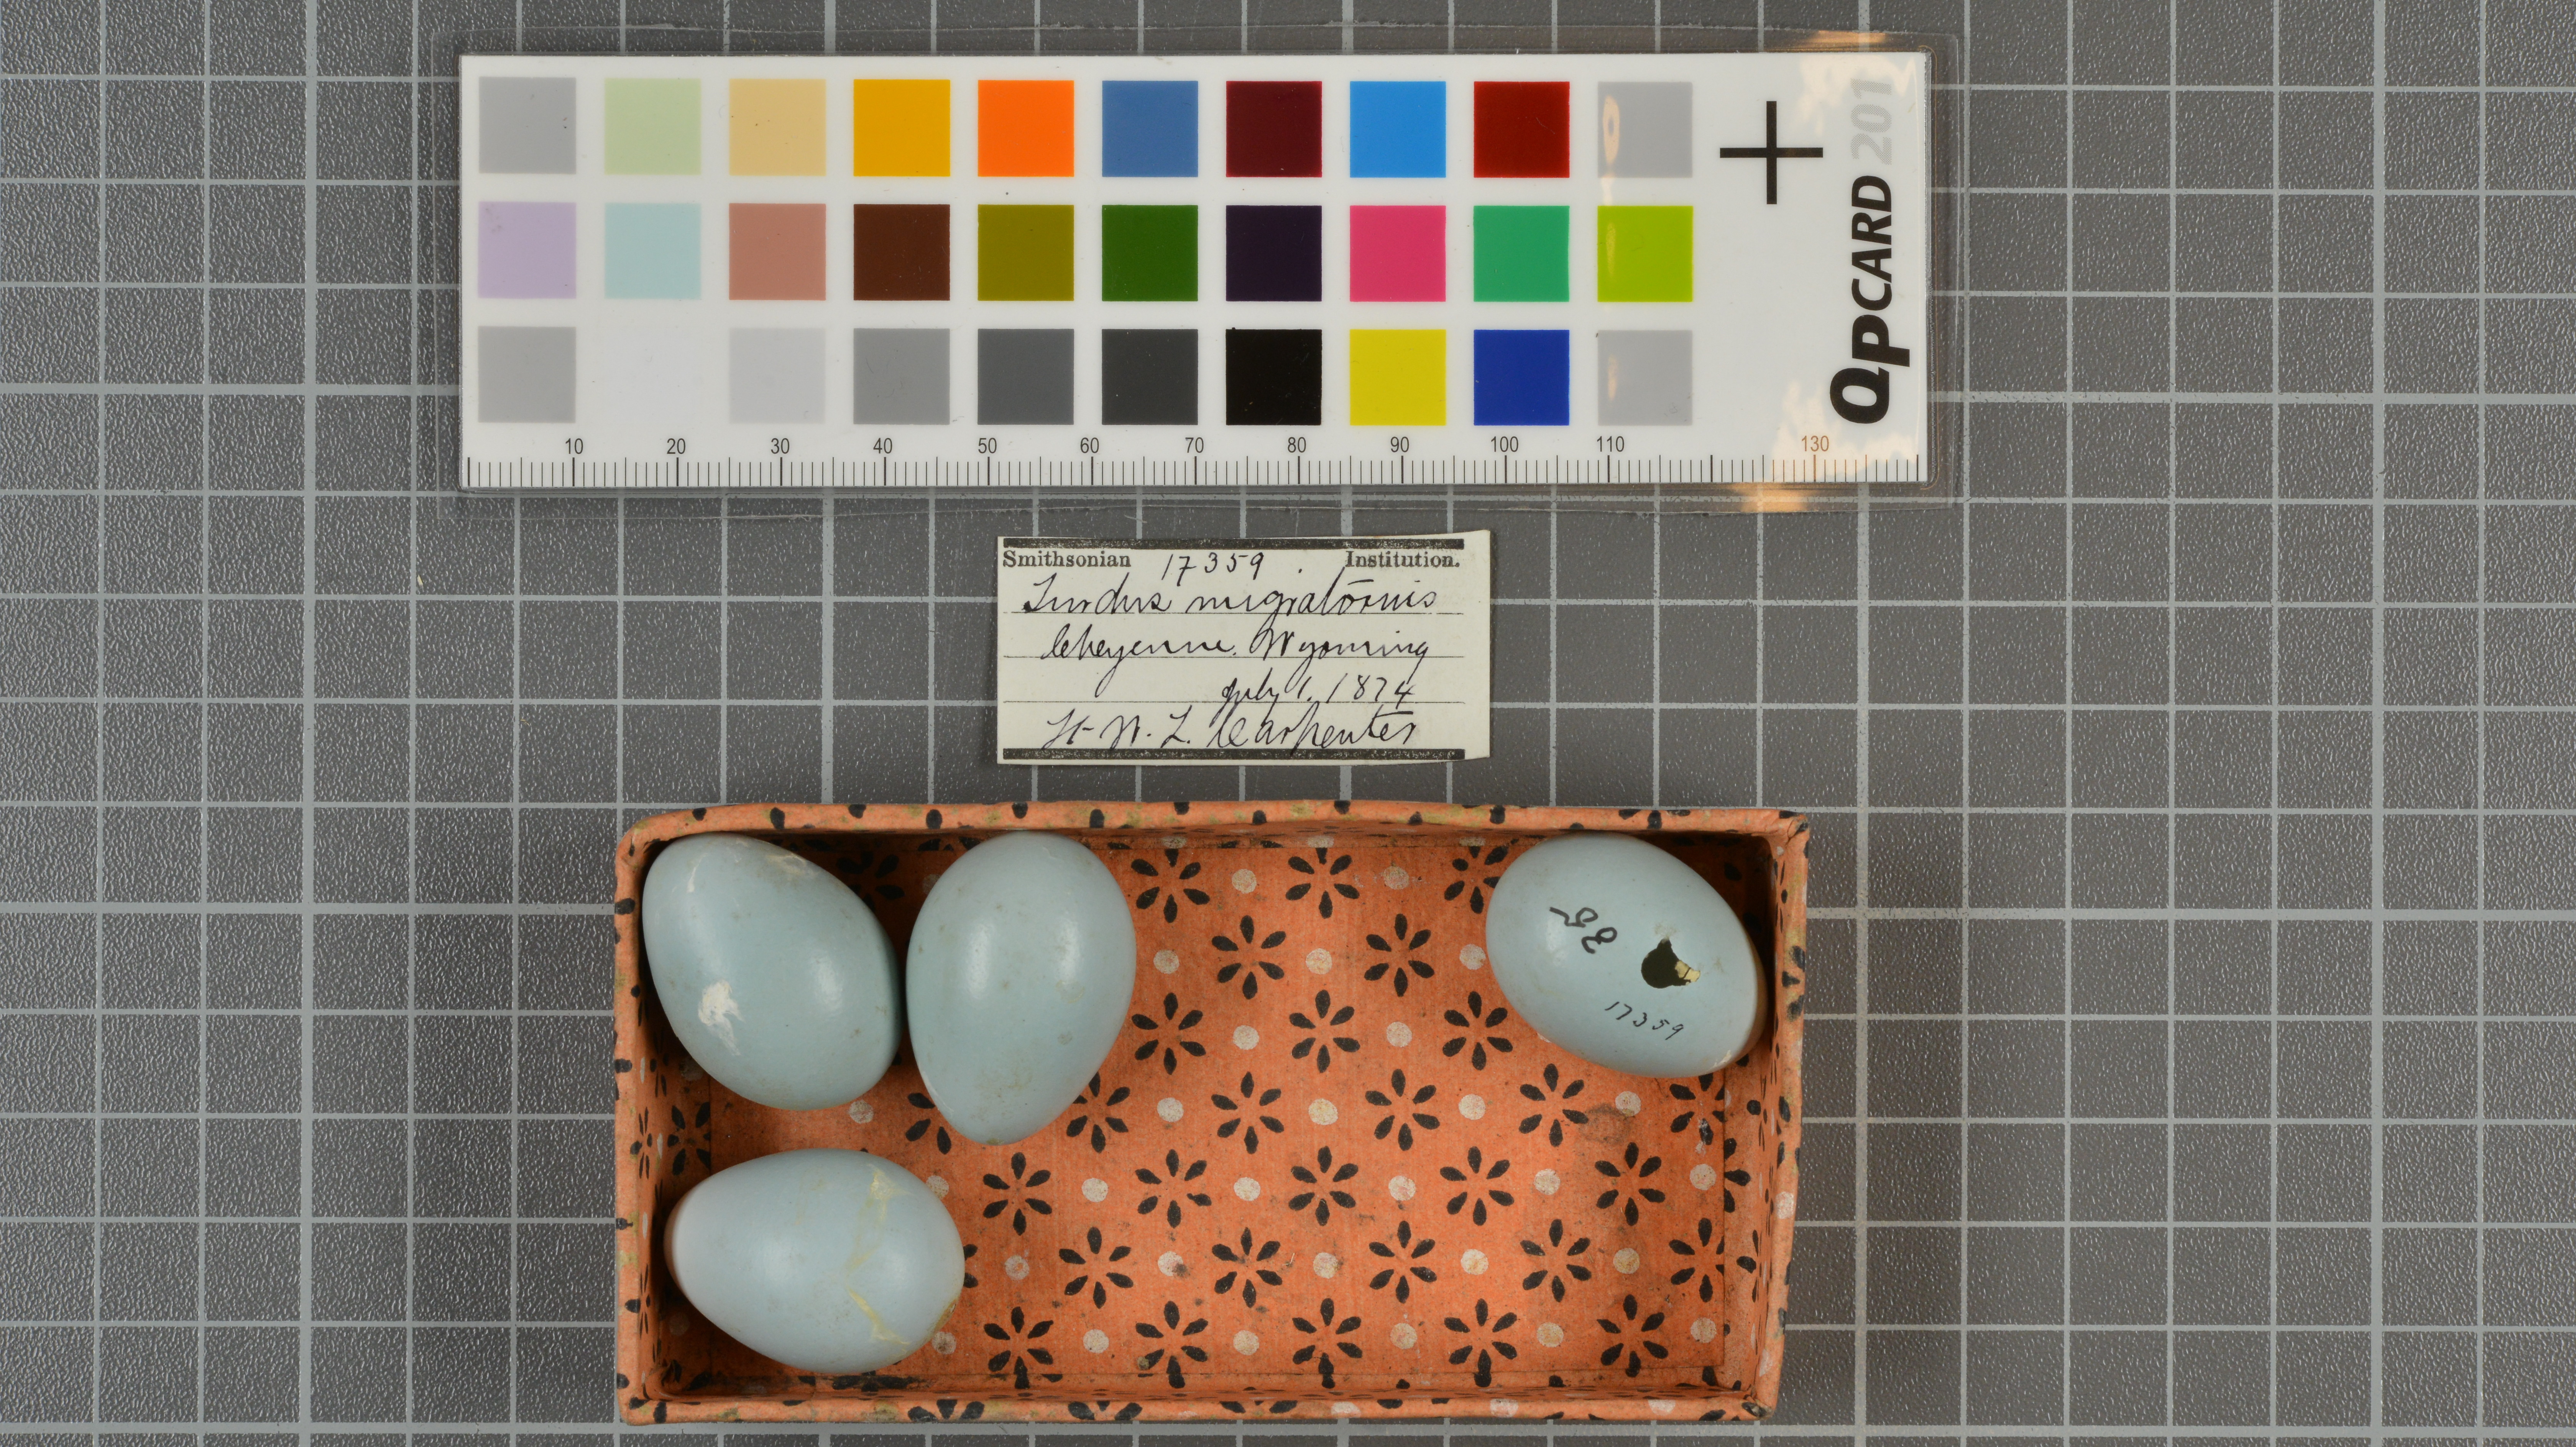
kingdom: Animalia
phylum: Chordata
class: Aves
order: Passeriformes
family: Turdidae
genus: Turdus
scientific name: Turdus migratorius
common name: American robin
